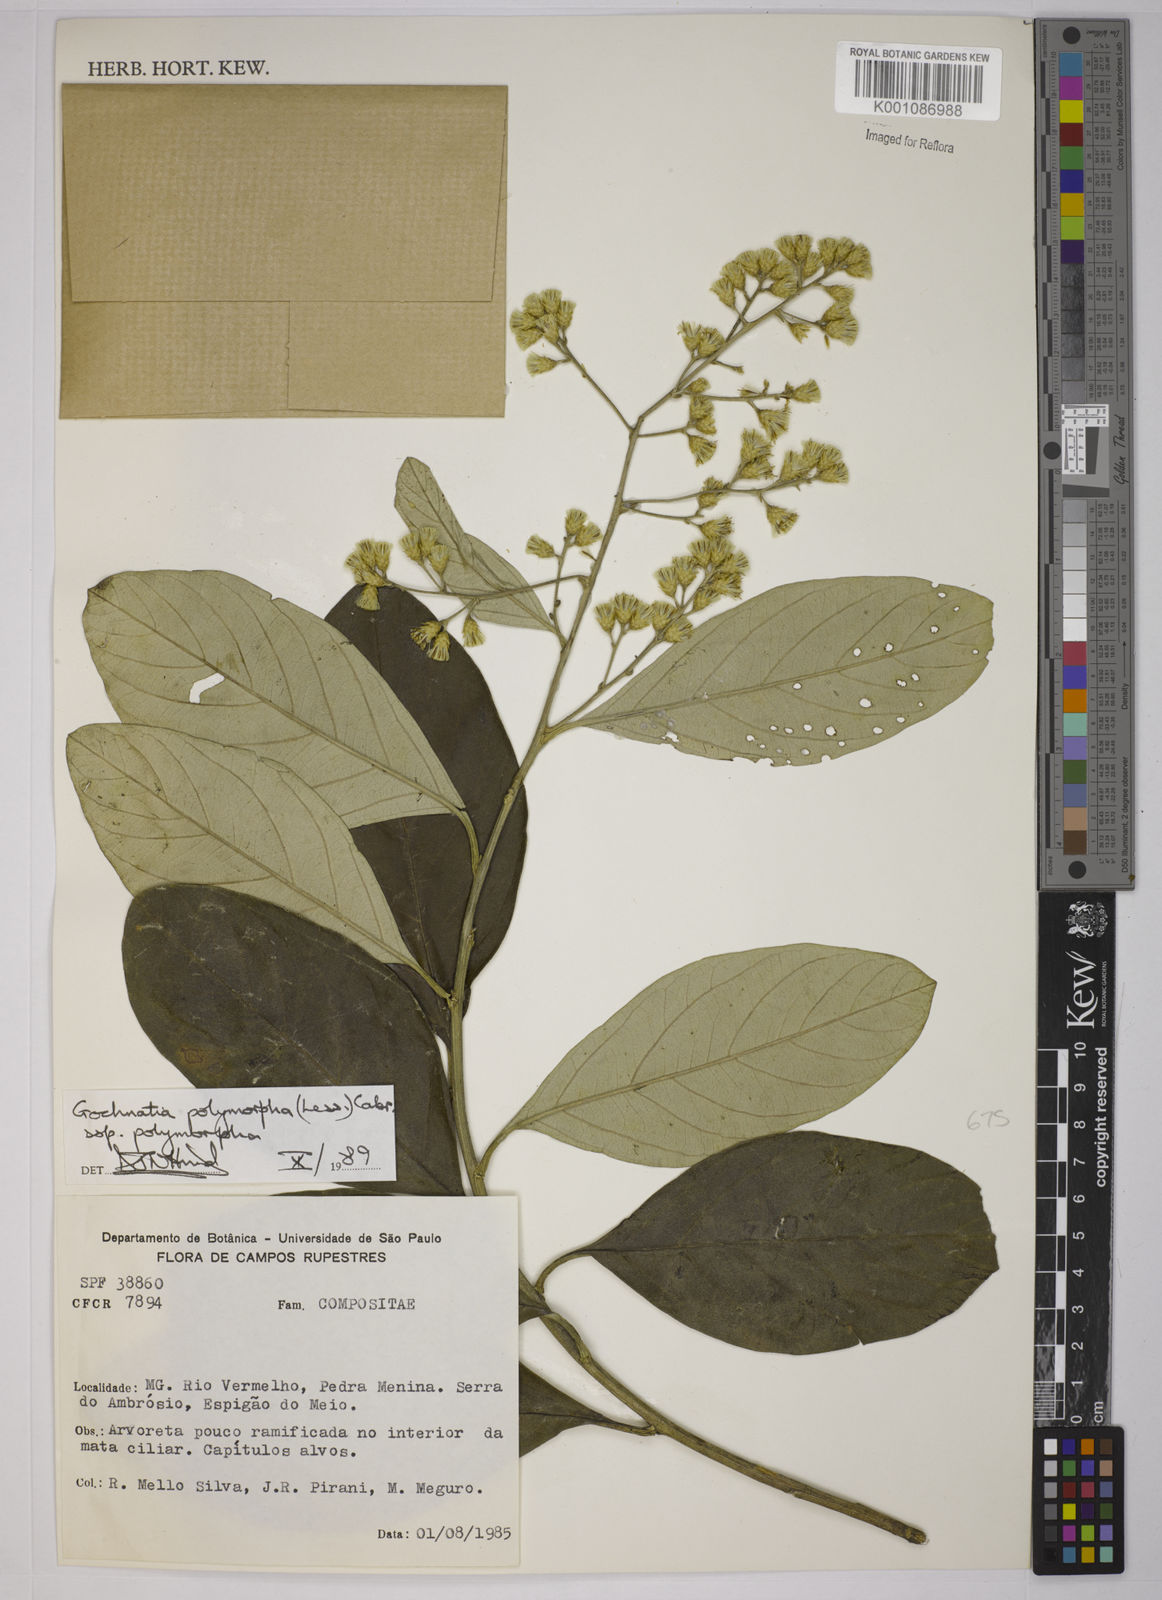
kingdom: Plantae
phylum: Tracheophyta
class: Magnoliopsida
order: Asterales
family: Asteraceae
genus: Moquiniastrum
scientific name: Moquiniastrum polymorphum
